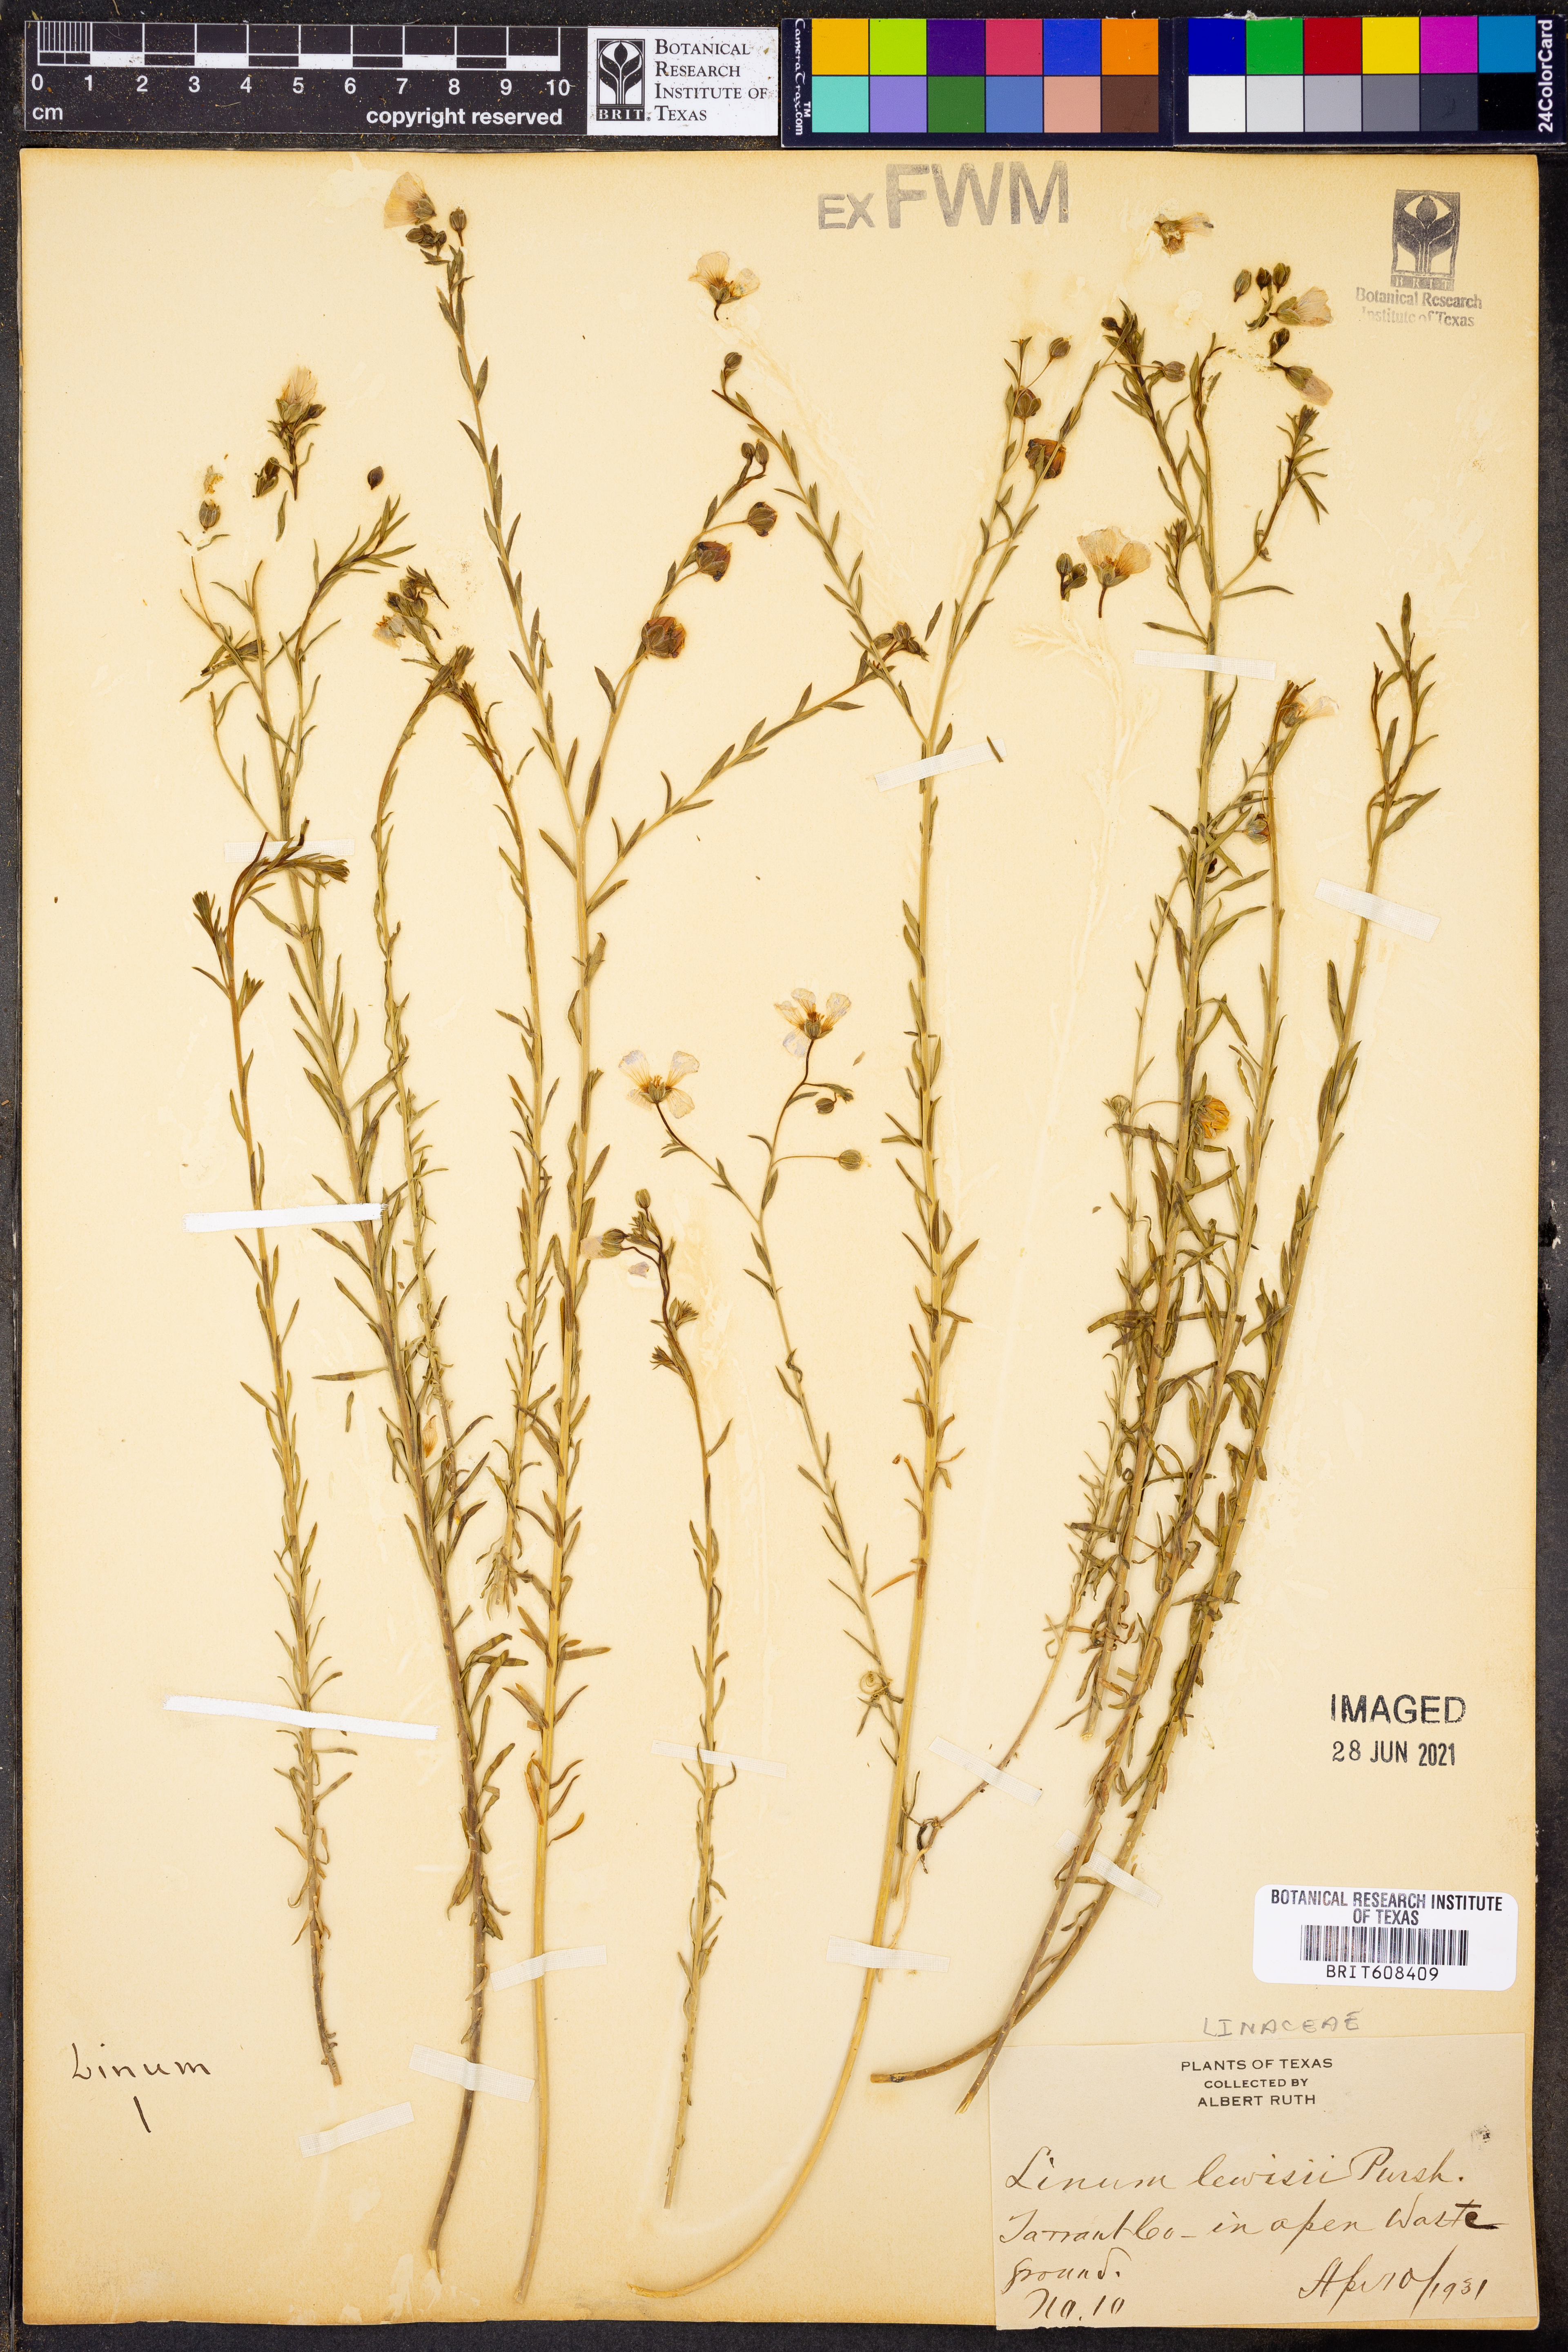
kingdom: Plantae
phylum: Tracheophyta
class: Magnoliopsida
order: Malpighiales
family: Linaceae
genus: Linum
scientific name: Linum lewisii
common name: Prairie flax
